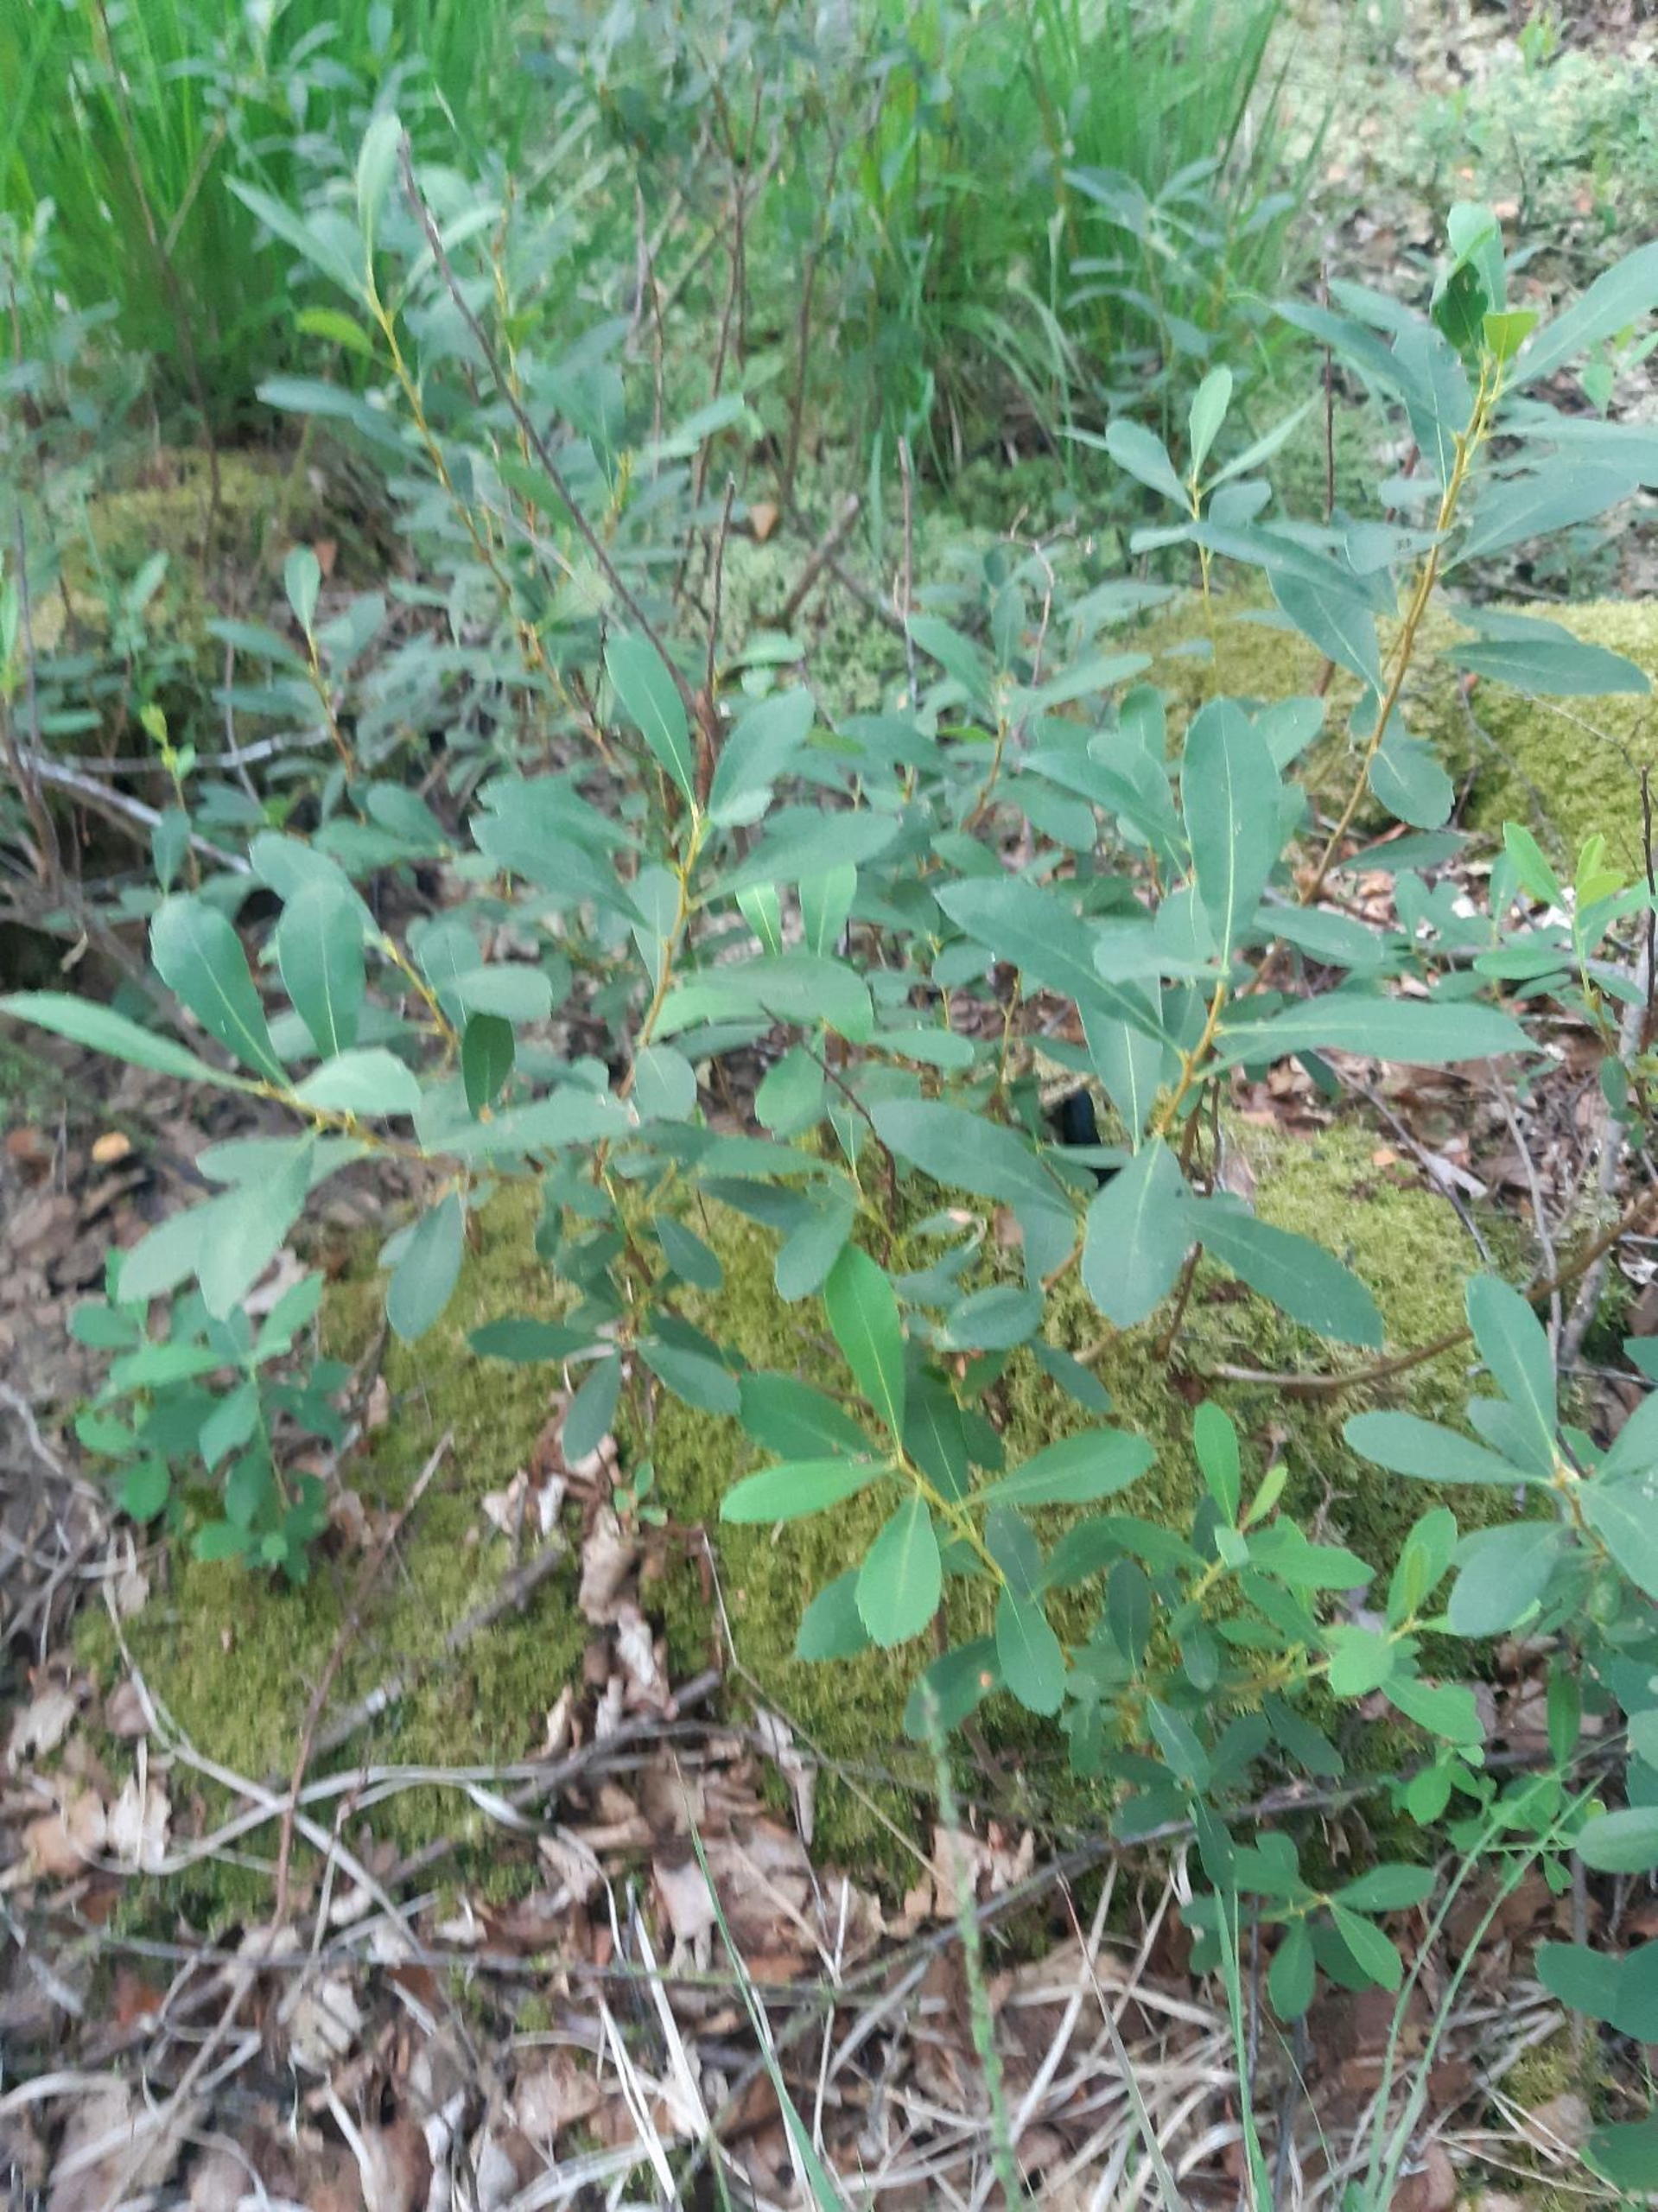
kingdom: Plantae
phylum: Tracheophyta
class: Magnoliopsida
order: Fagales
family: Myricaceae
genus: Myrica
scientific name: Myrica gale
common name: Pors
